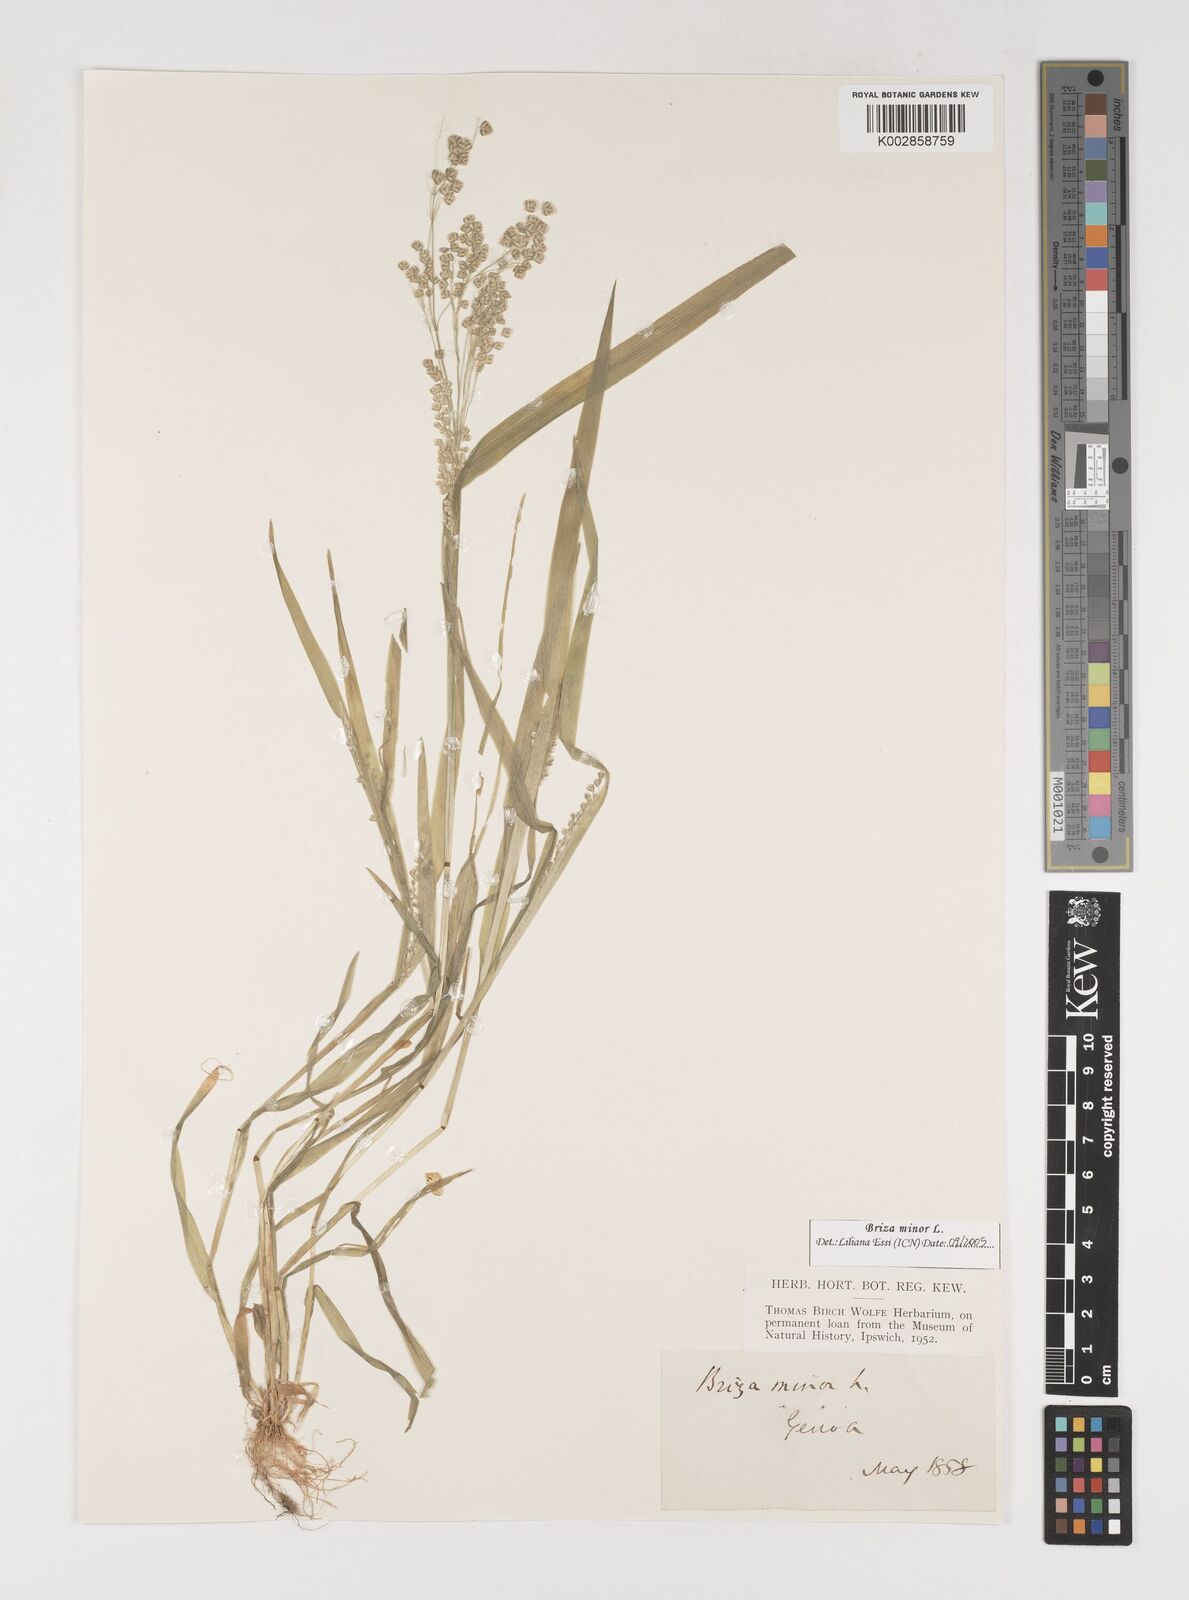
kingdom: Plantae
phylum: Tracheophyta
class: Liliopsida
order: Poales
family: Poaceae
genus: Briza
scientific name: Briza minor
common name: Lesser quaking-grass
